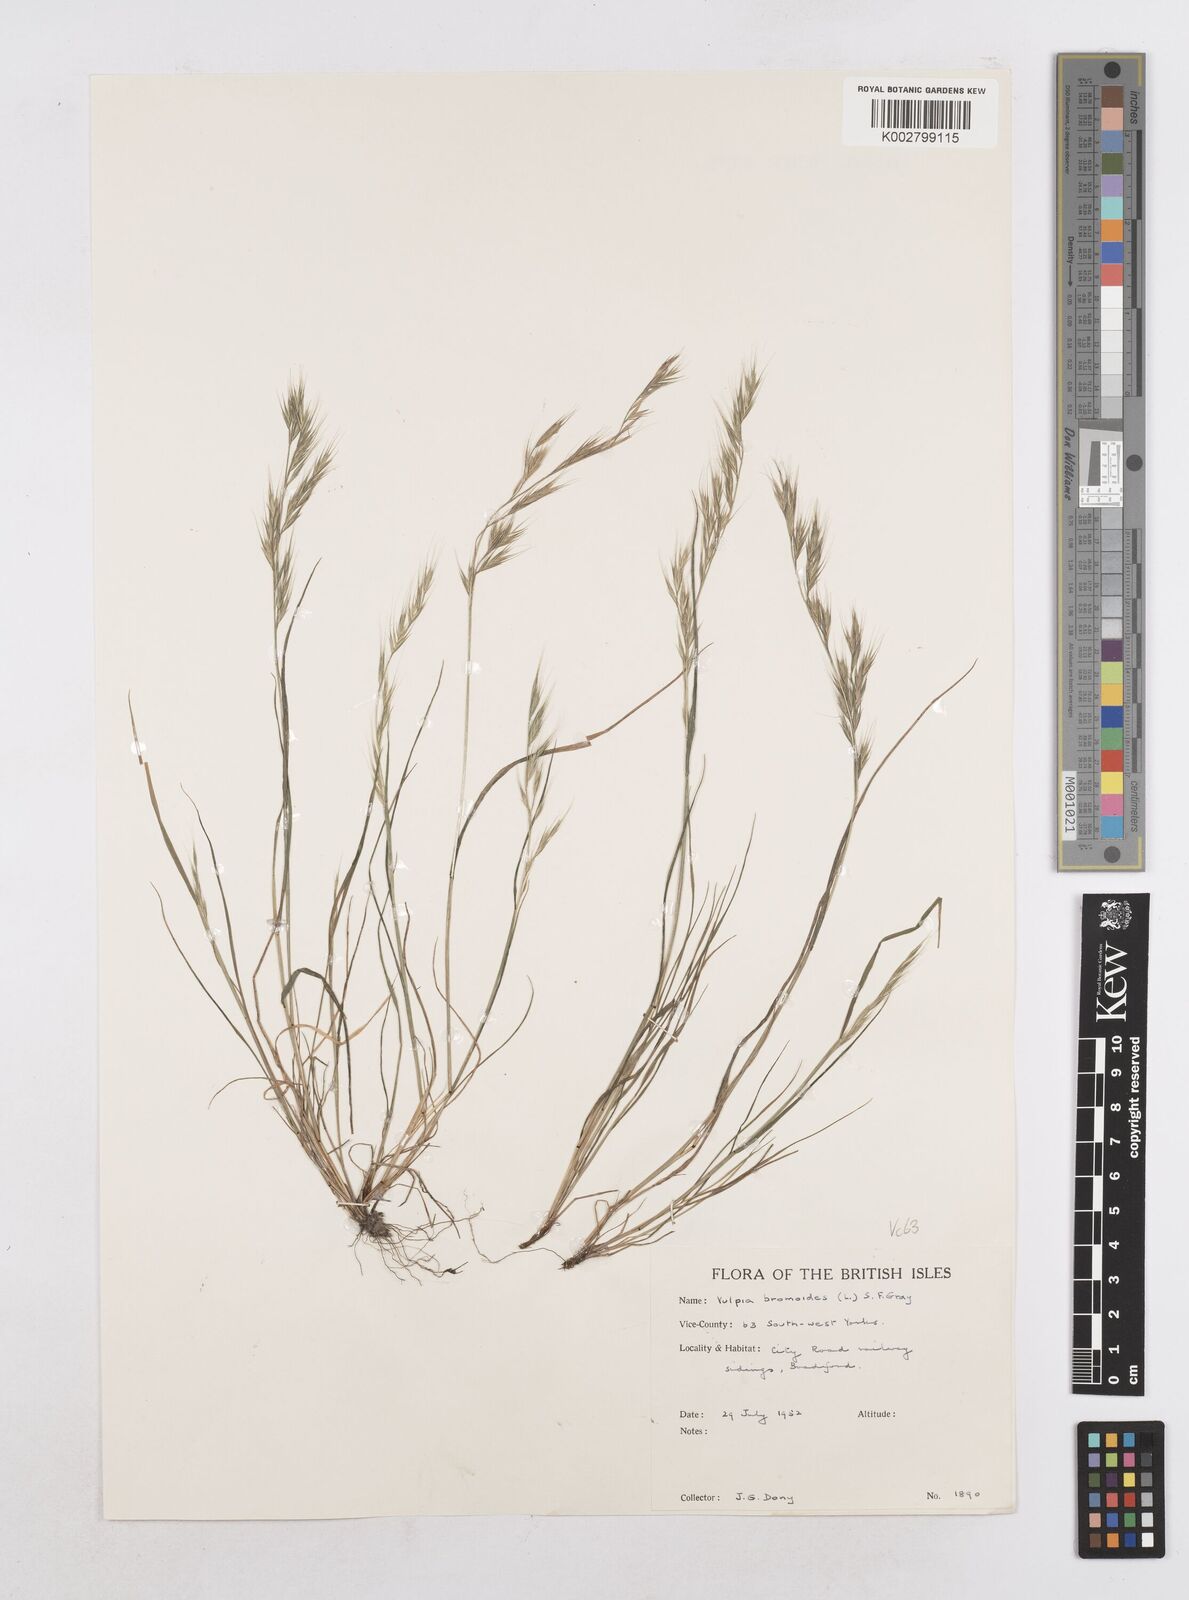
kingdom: Plantae
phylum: Tracheophyta
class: Liliopsida
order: Poales
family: Poaceae
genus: Festuca
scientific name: Festuca bromoides
